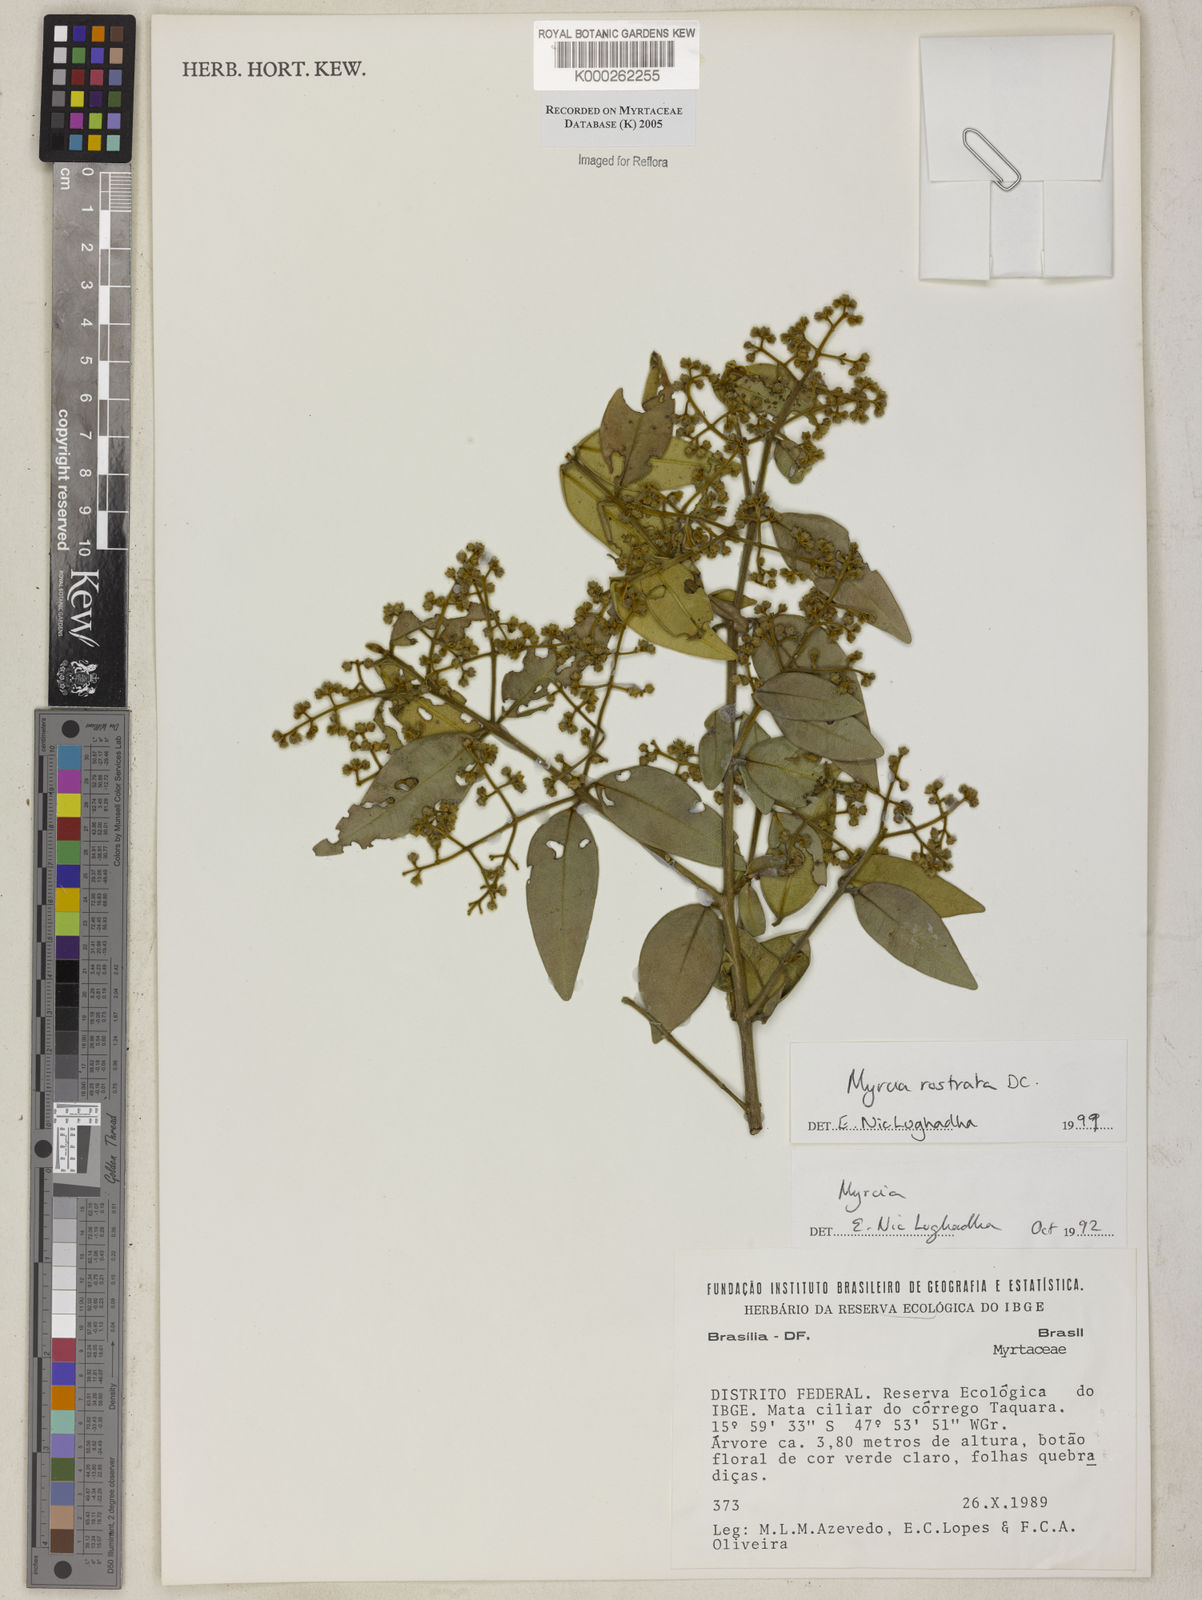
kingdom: Plantae
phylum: Tracheophyta
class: Magnoliopsida
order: Myrtales
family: Myrtaceae
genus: Myrcia
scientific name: Myrcia splendens
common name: Surinam cherry
